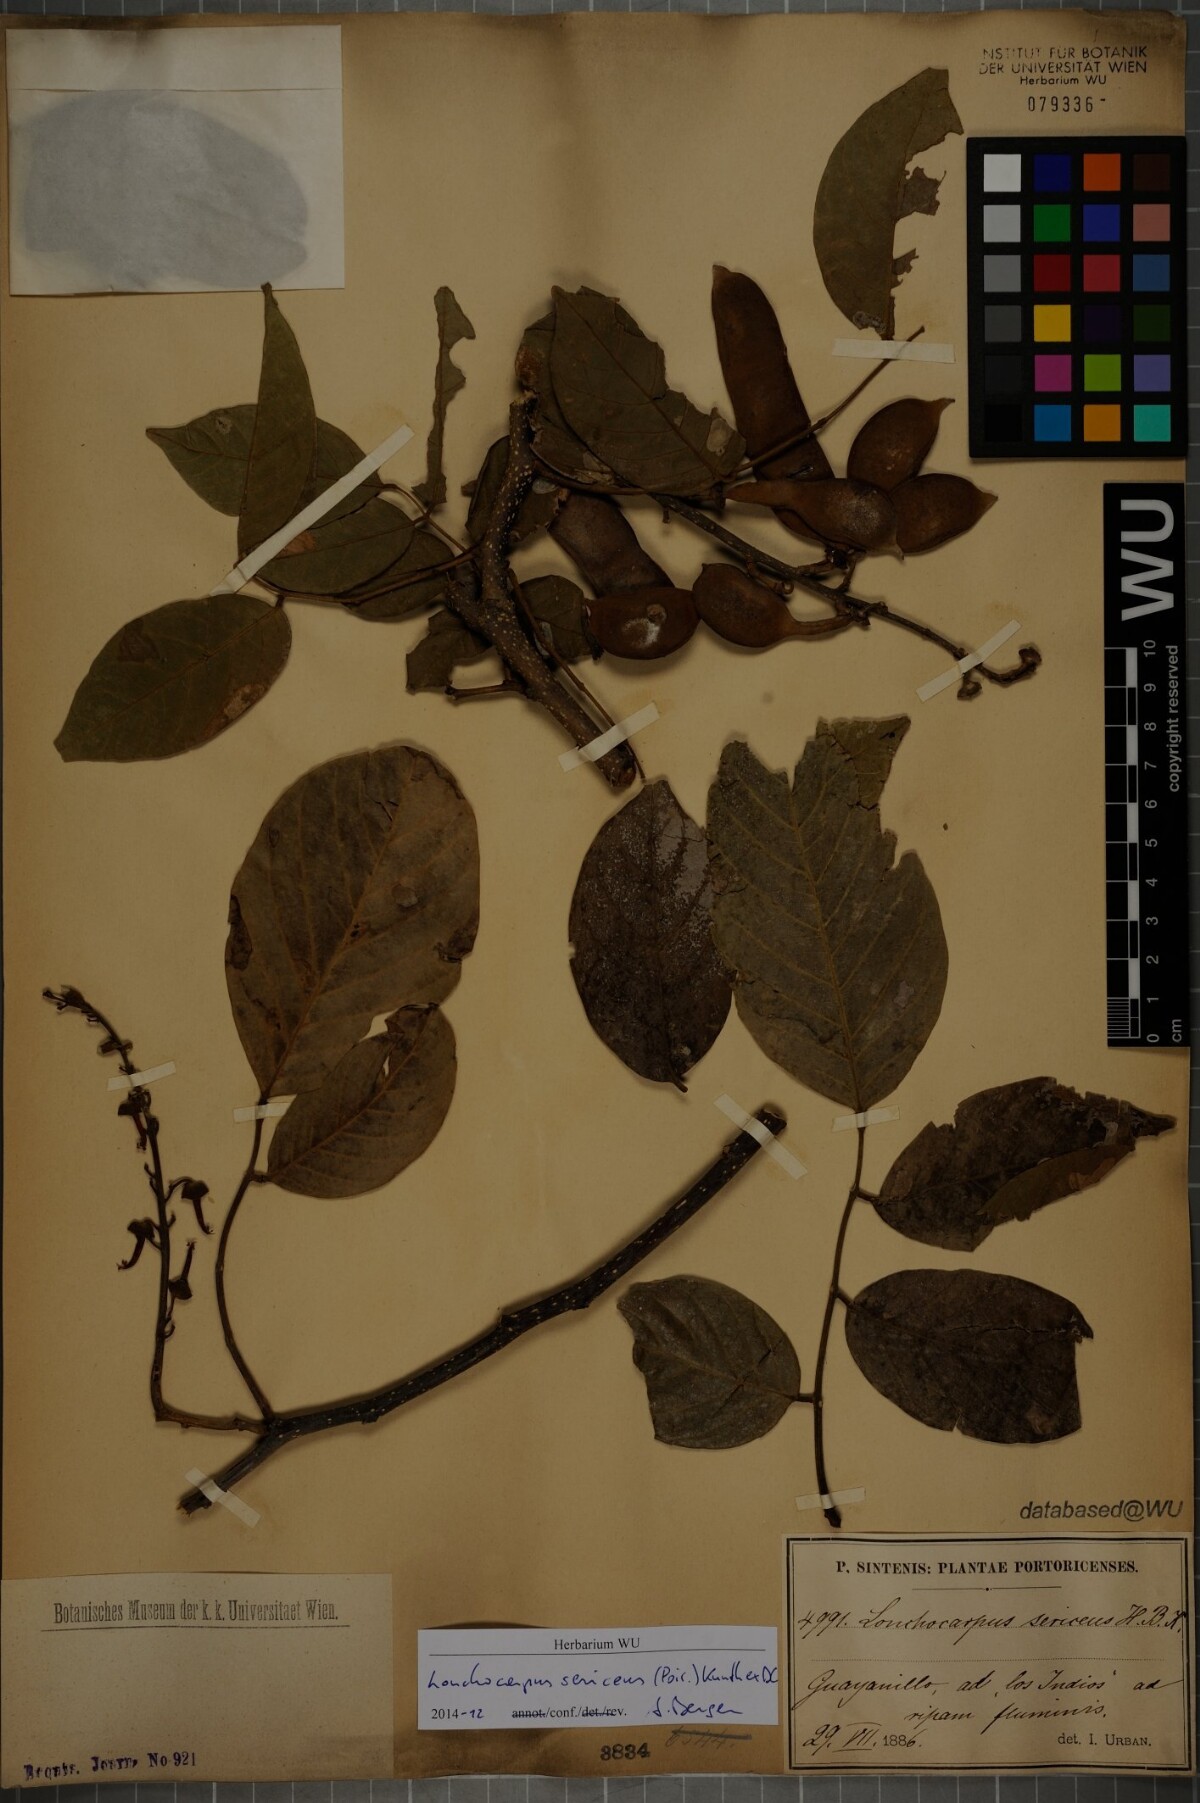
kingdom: Plantae
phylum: Tracheophyta
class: Magnoliopsida
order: Fabales
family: Fabaceae
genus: Lonchocarpus
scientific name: Lonchocarpus sericeus
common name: Savonette
